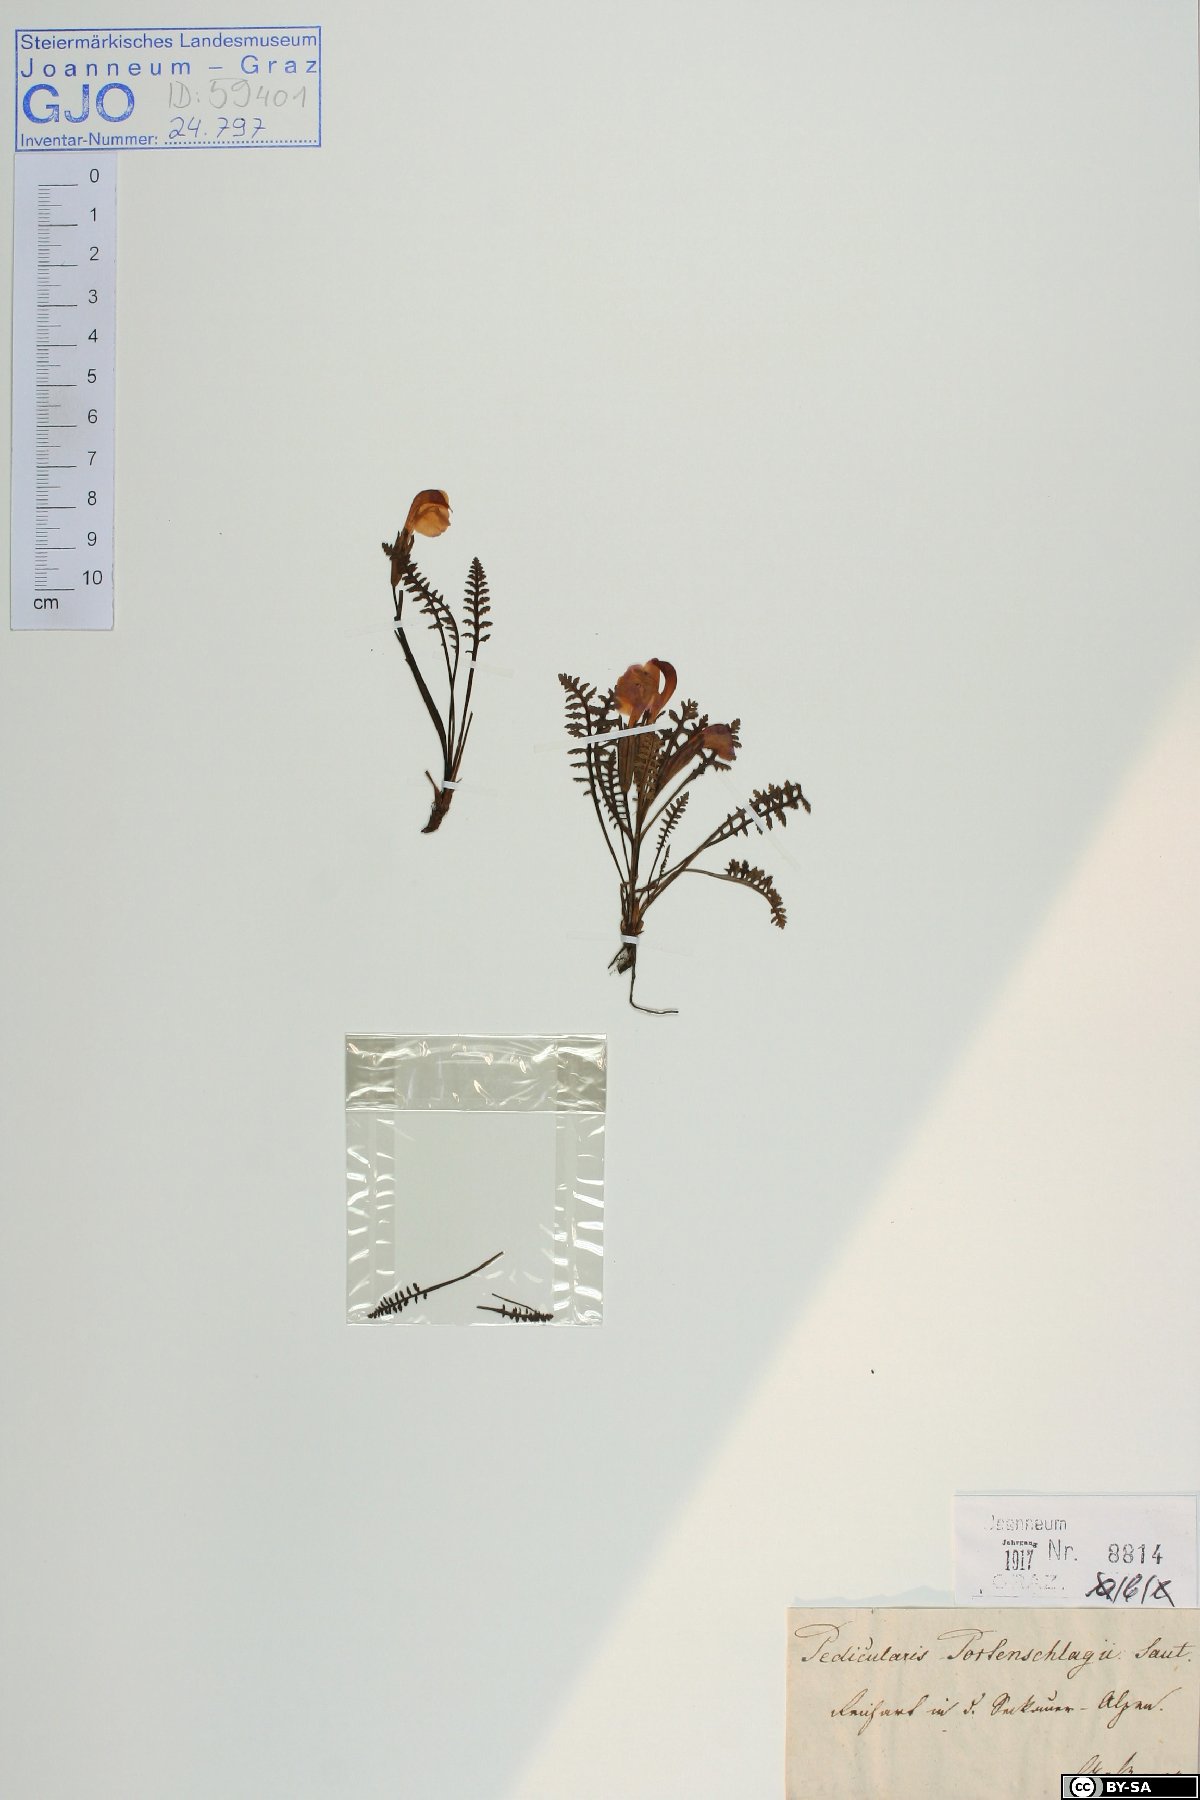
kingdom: Plantae
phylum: Tracheophyta
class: Magnoliopsida
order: Lamiales
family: Orobanchaceae
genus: Pedicularis
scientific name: Pedicularis portenschlagii
